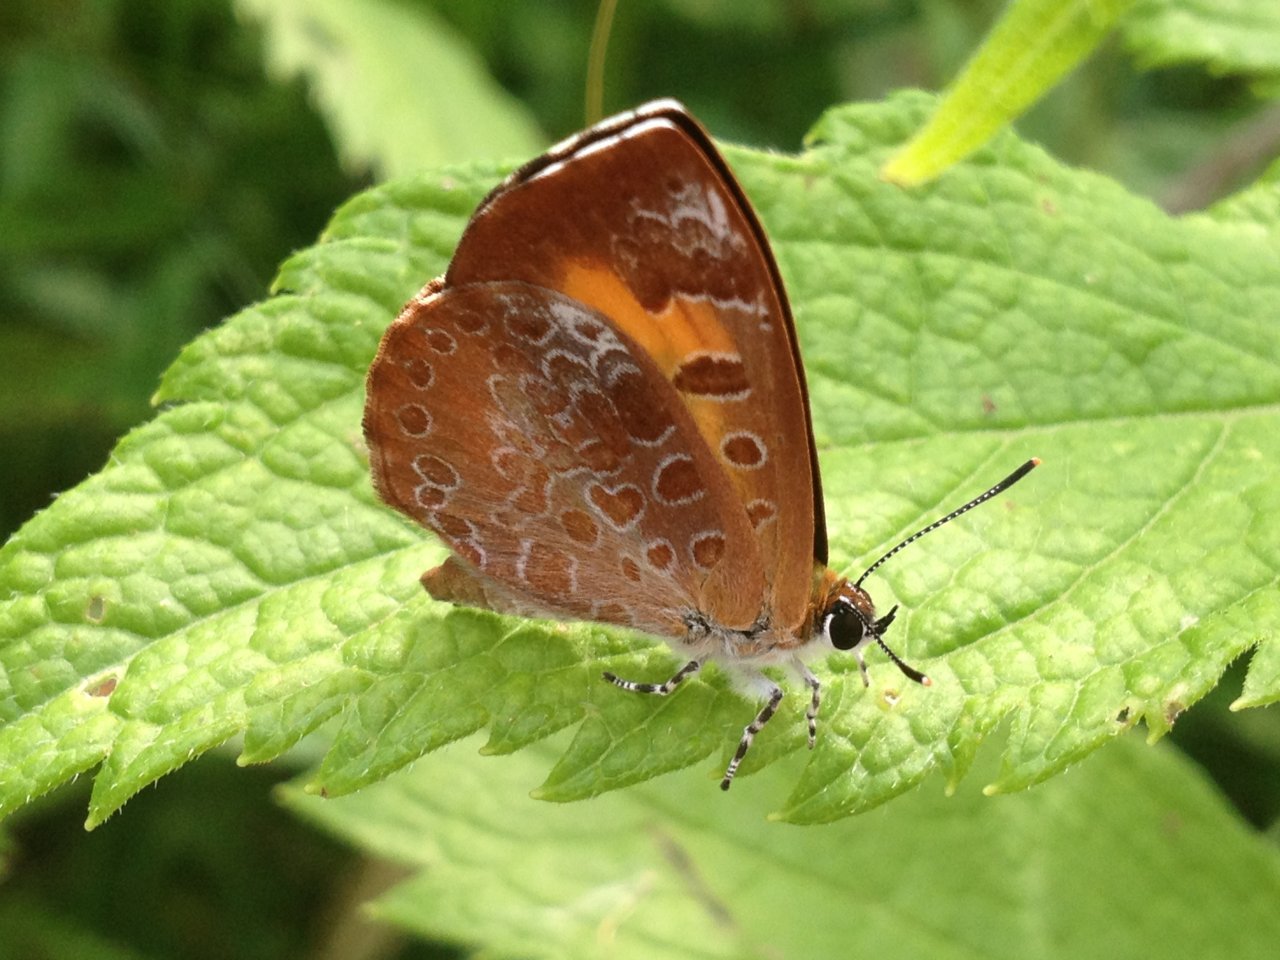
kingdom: Animalia
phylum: Arthropoda
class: Insecta
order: Lepidoptera
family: Lycaenidae
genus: Feniseca
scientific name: Feniseca tarquinius
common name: Harvester
